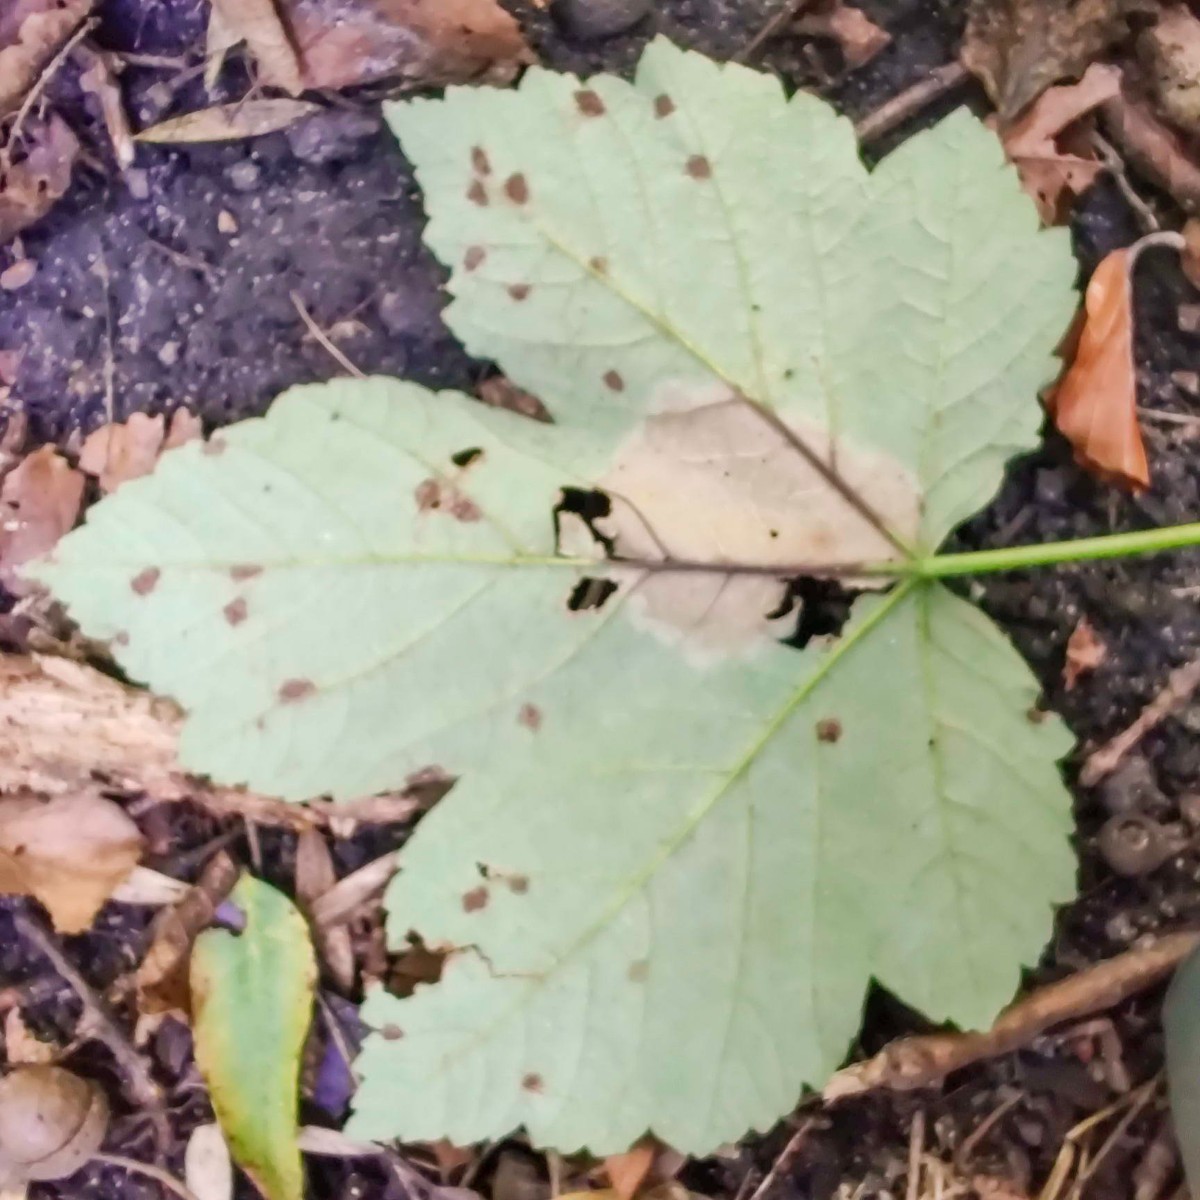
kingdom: Fungi
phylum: Ascomycota
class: Sordariomycetes
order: Diaporthales
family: Gnomoniaceae
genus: Pleuroceras
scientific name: Pleuroceras pseudoplatani
